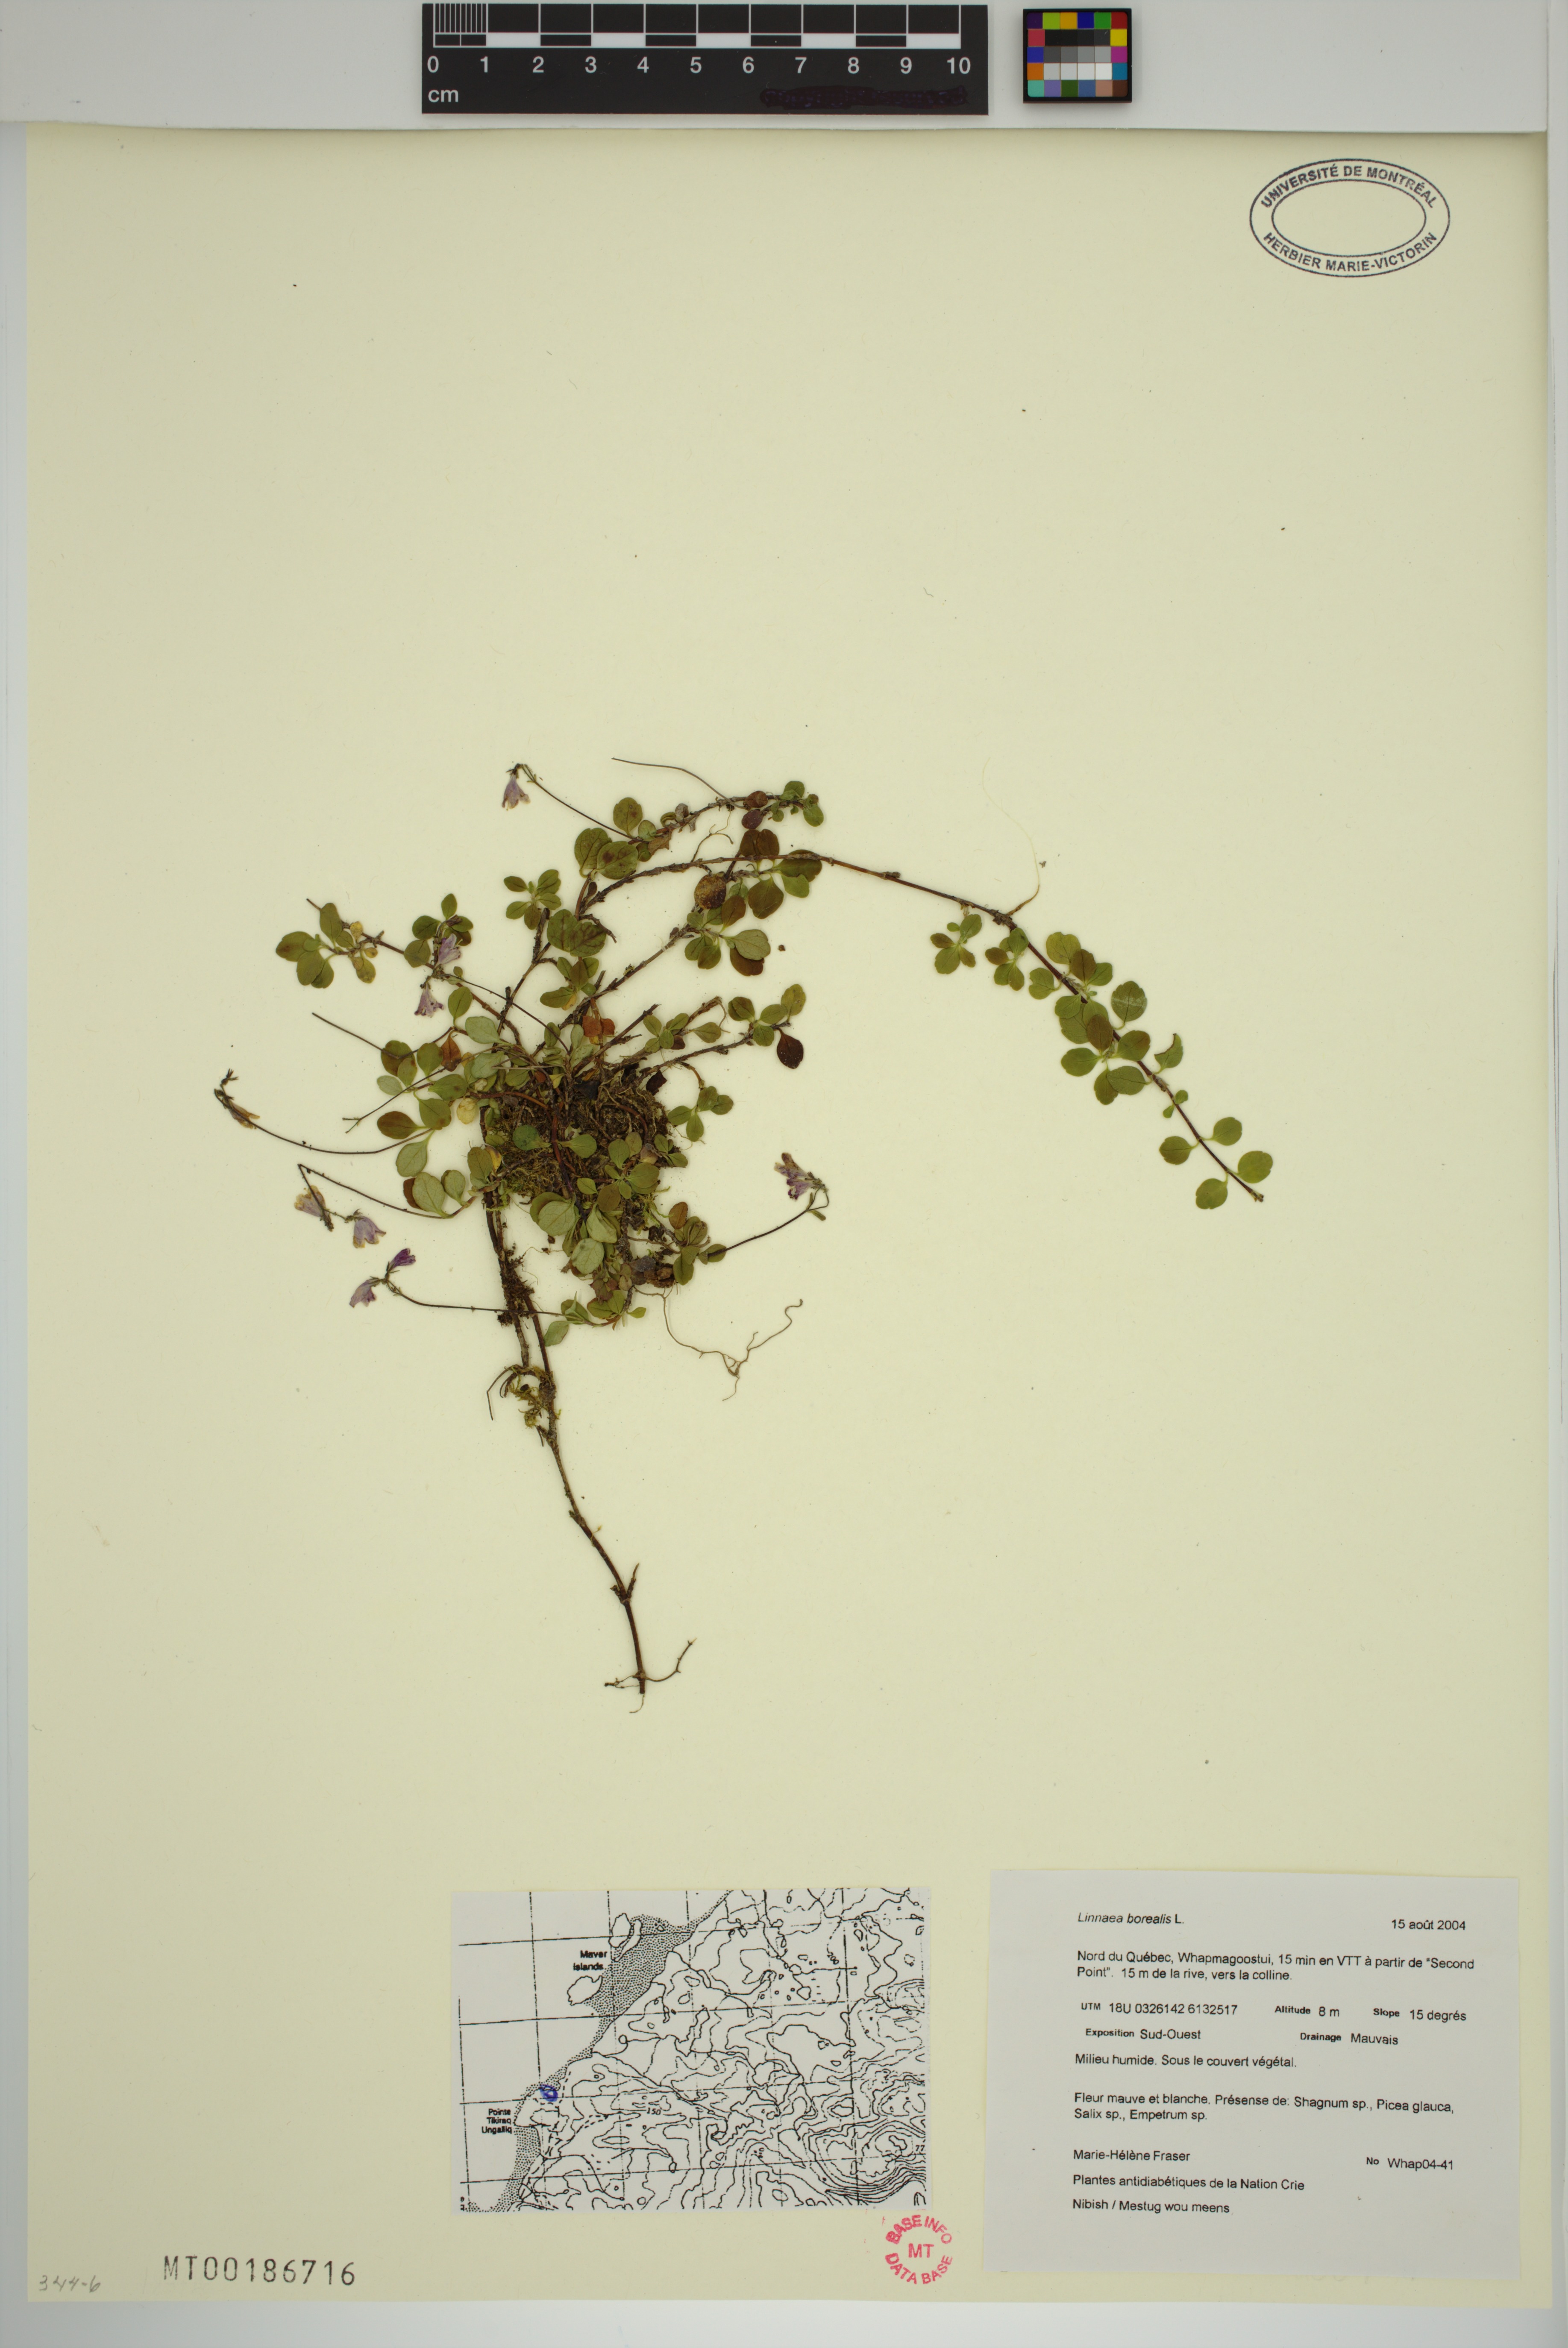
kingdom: Plantae
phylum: Tracheophyta
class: Magnoliopsida
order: Dipsacales
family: Caprifoliaceae
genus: Linnaea
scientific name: Linnaea borealis
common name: Twinflower
